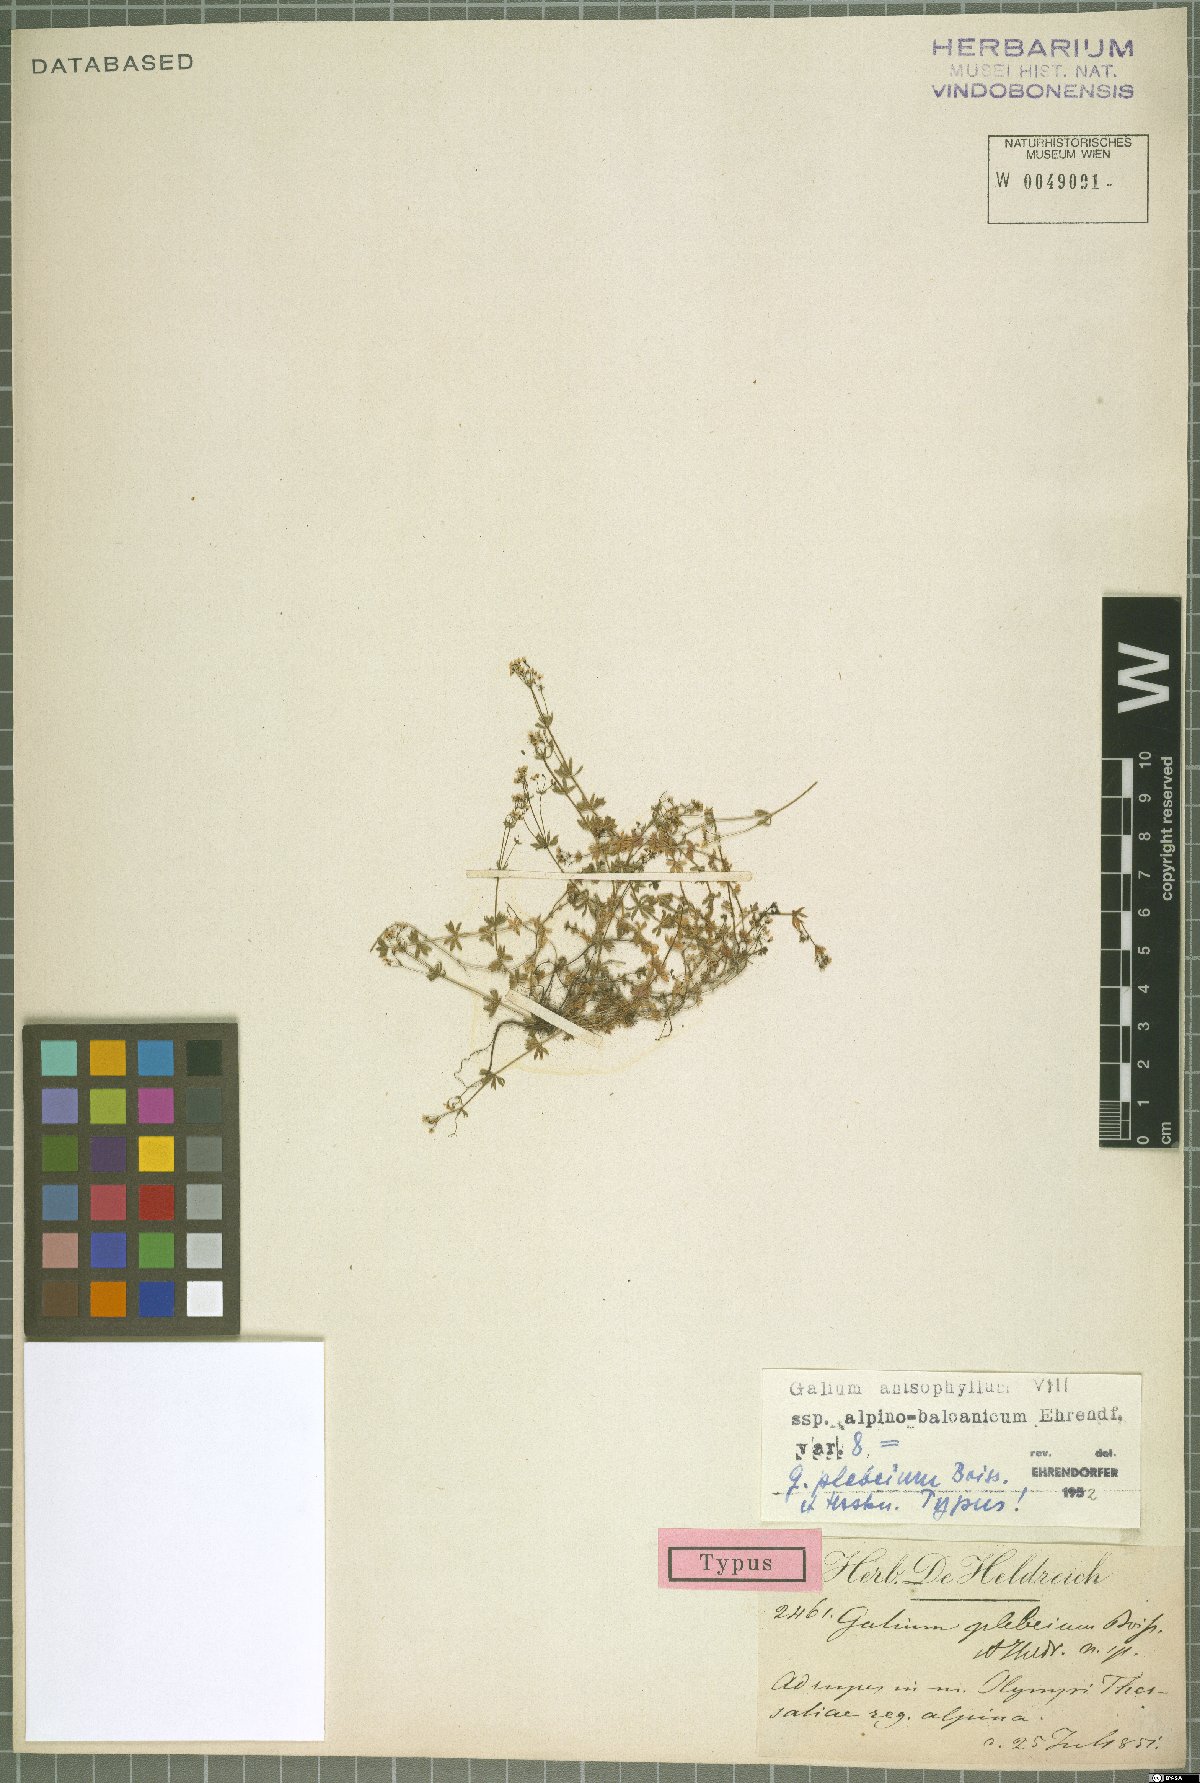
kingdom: Plantae
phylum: Tracheophyta
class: Magnoliopsida
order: Gentianales
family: Rubiaceae
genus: Galium
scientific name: Galium anisophyllon
